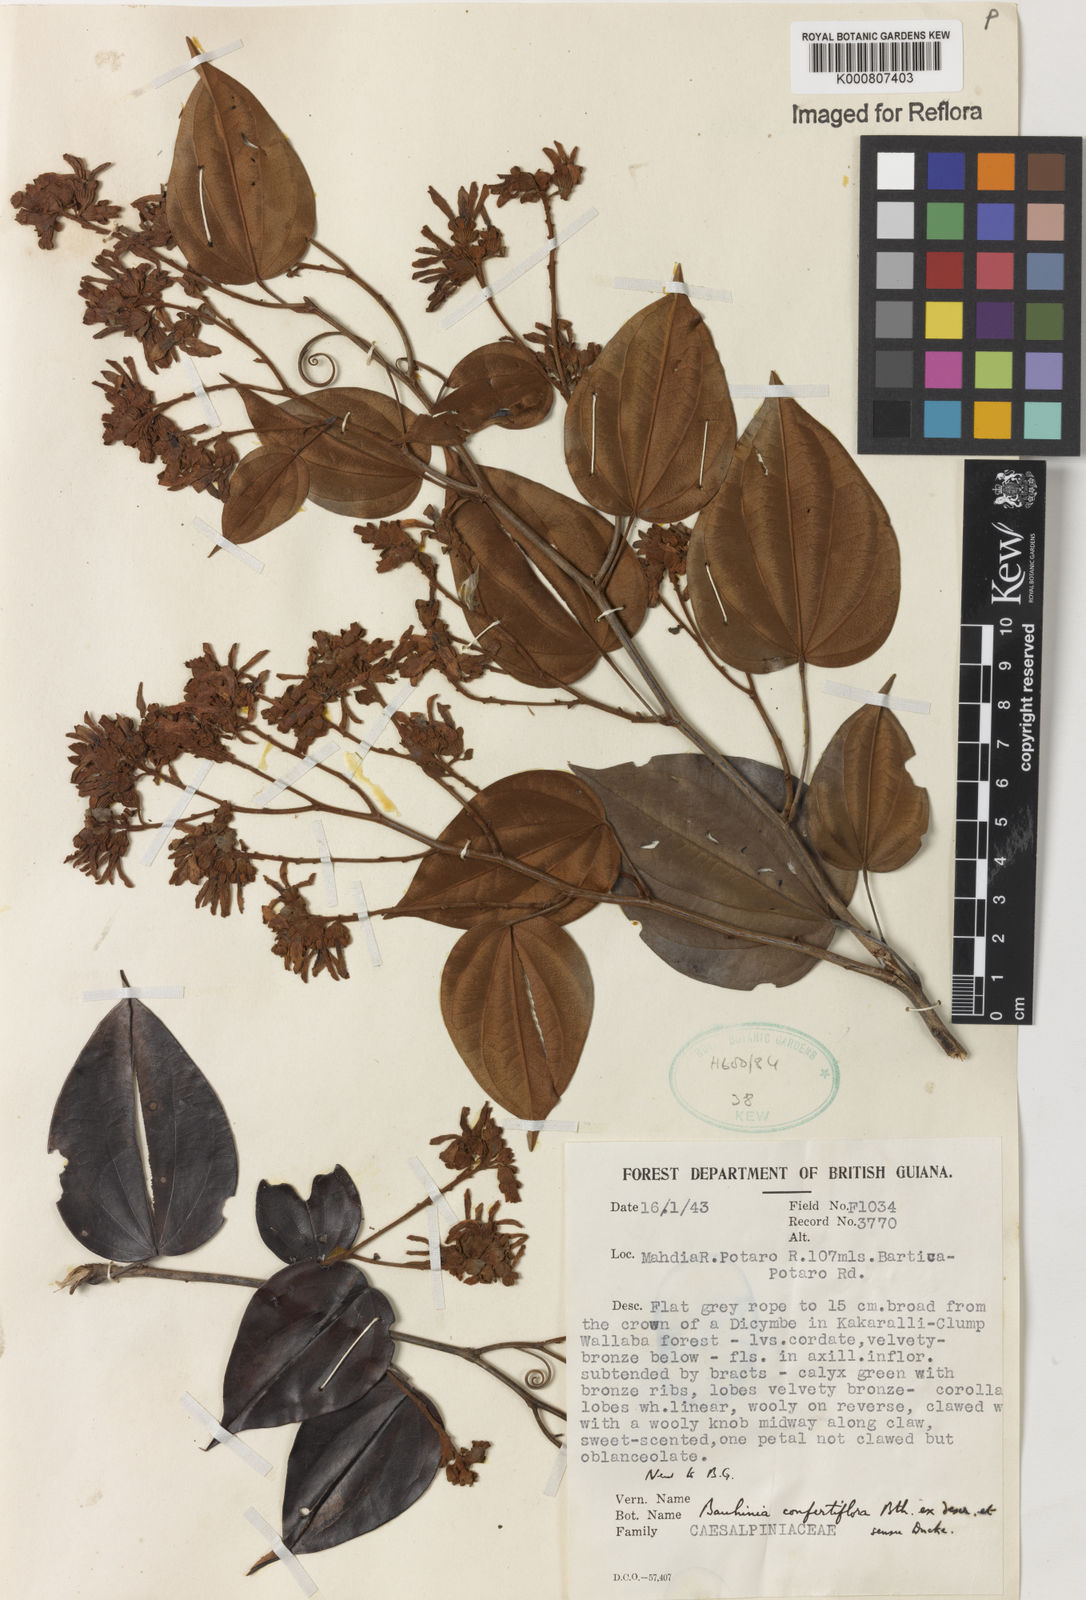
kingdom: Plantae
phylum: Tracheophyta
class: Magnoliopsida
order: Fabales
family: Fabaceae
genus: Schnella
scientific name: Schnella confertiflora
